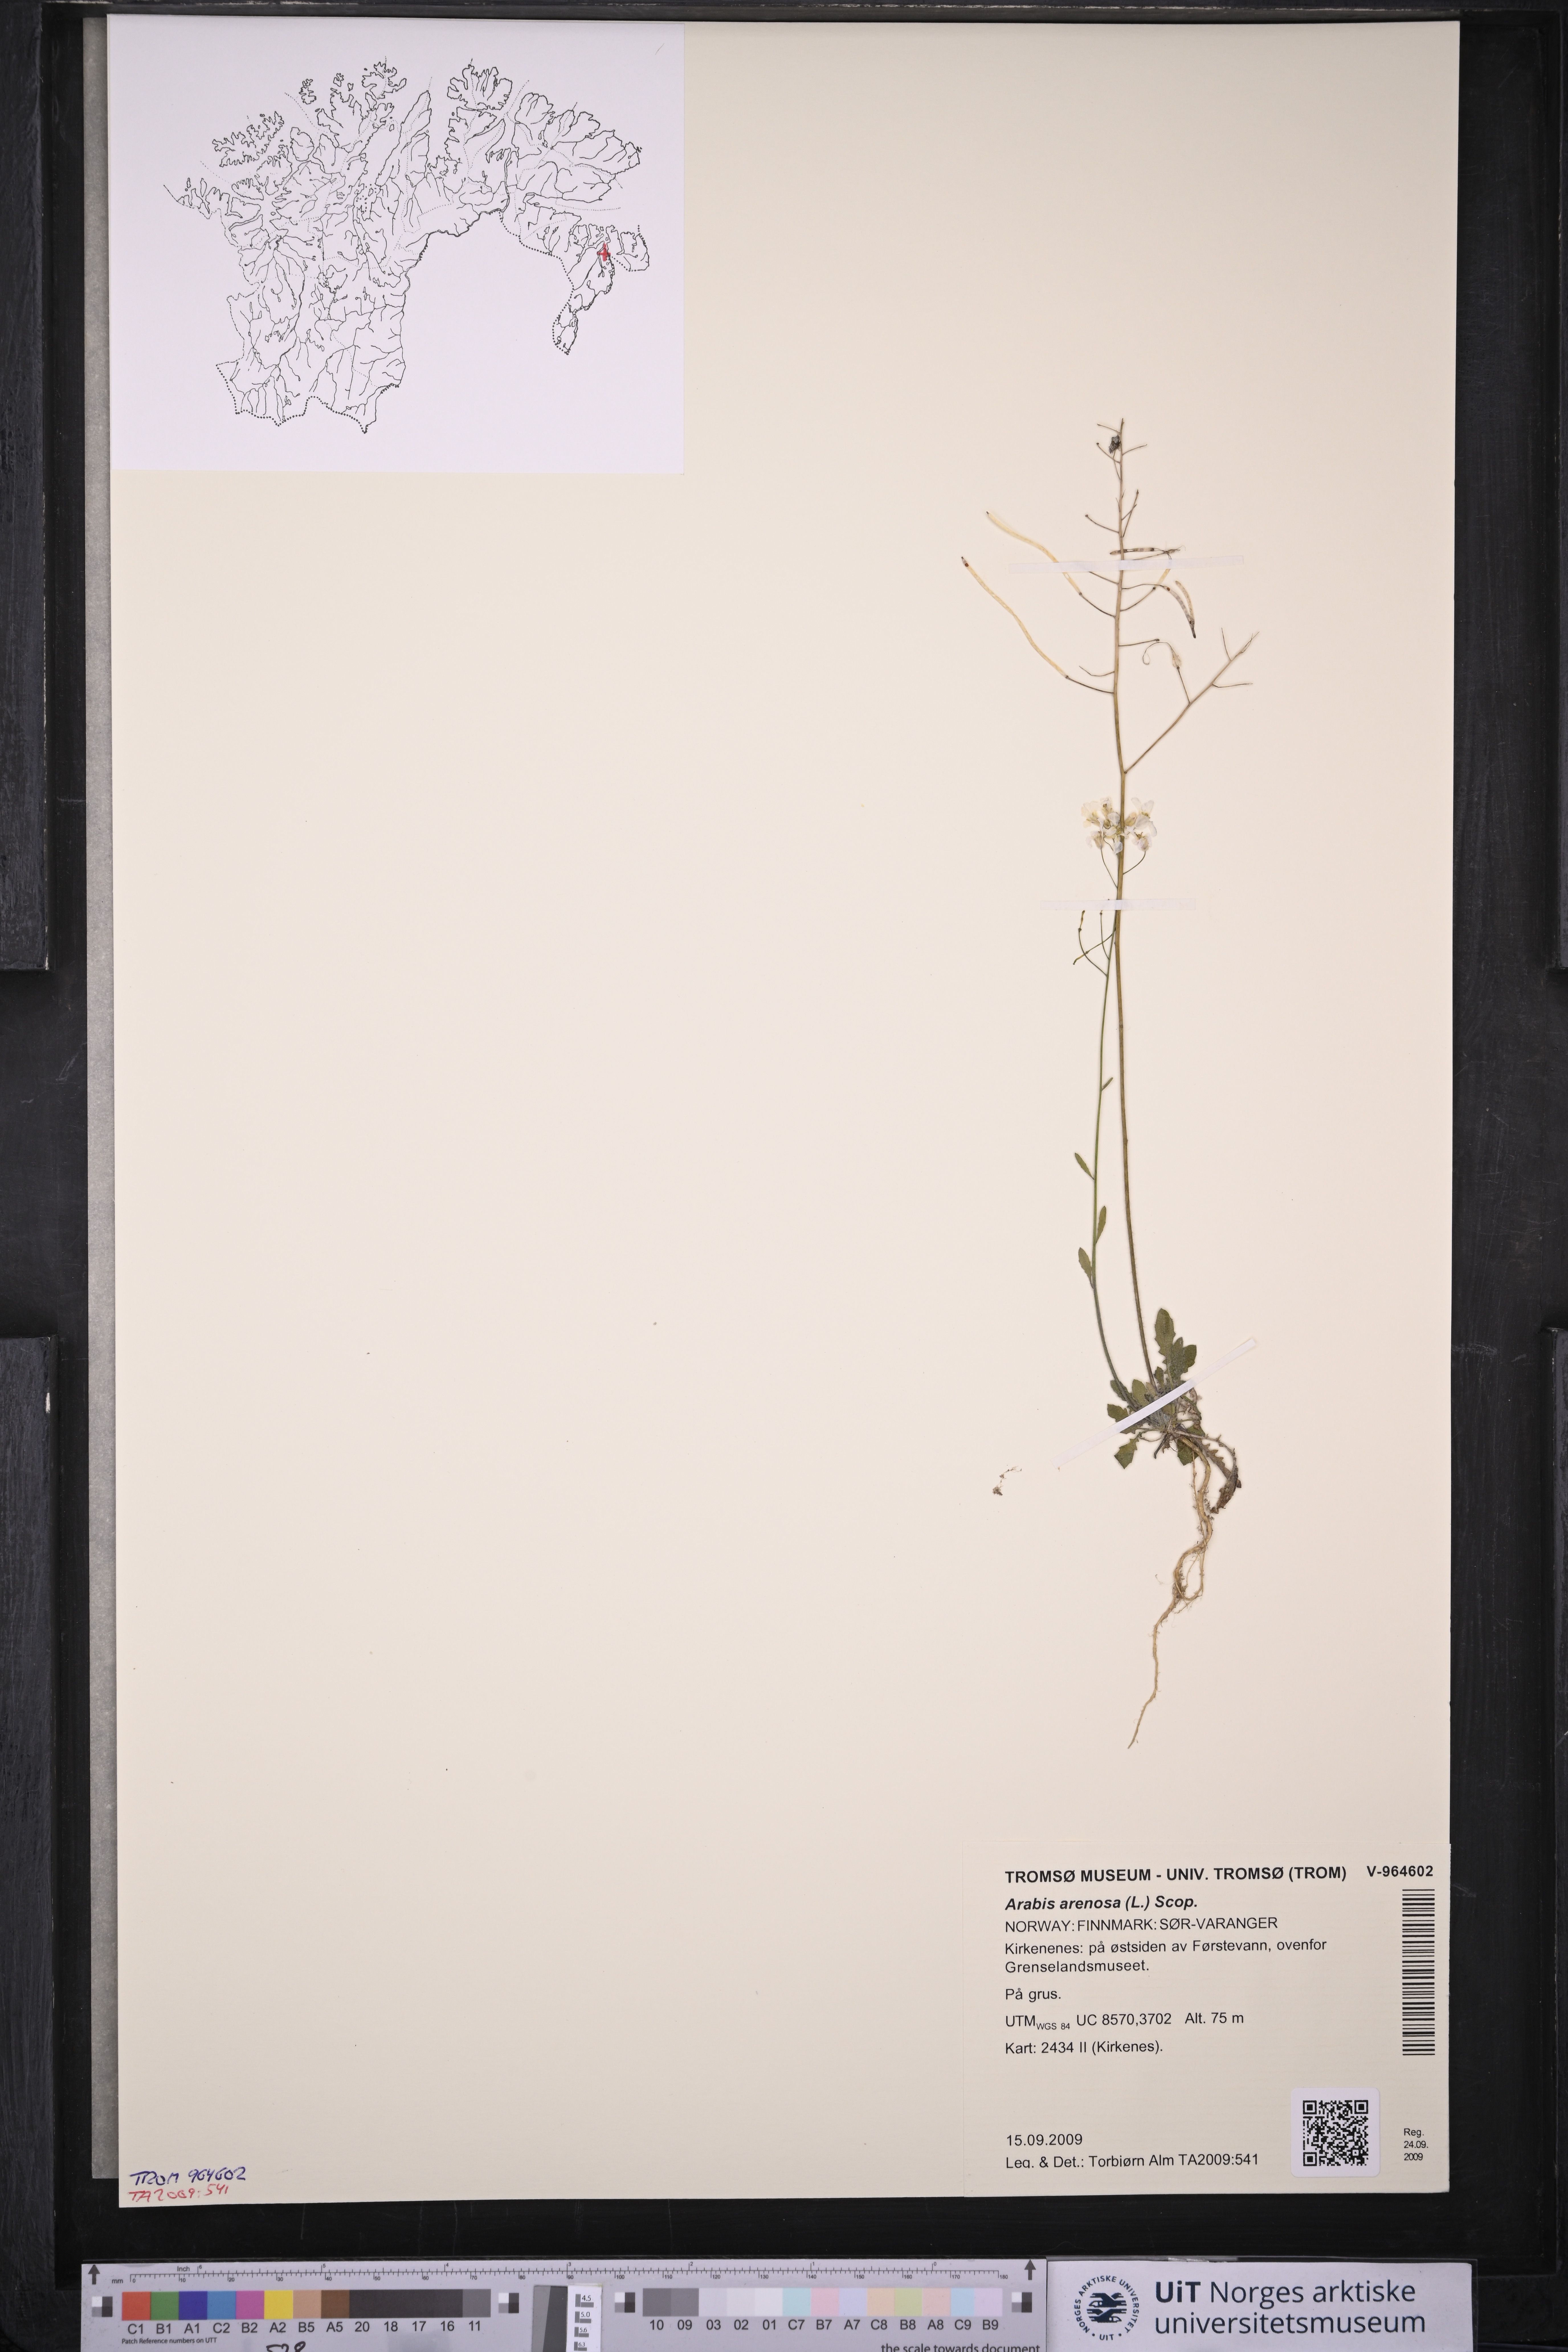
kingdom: Plantae
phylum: Tracheophyta
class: Magnoliopsida
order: Brassicales
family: Brassicaceae
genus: Arabidopsis
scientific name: Arabidopsis arenosa
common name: Sand rock-cress
